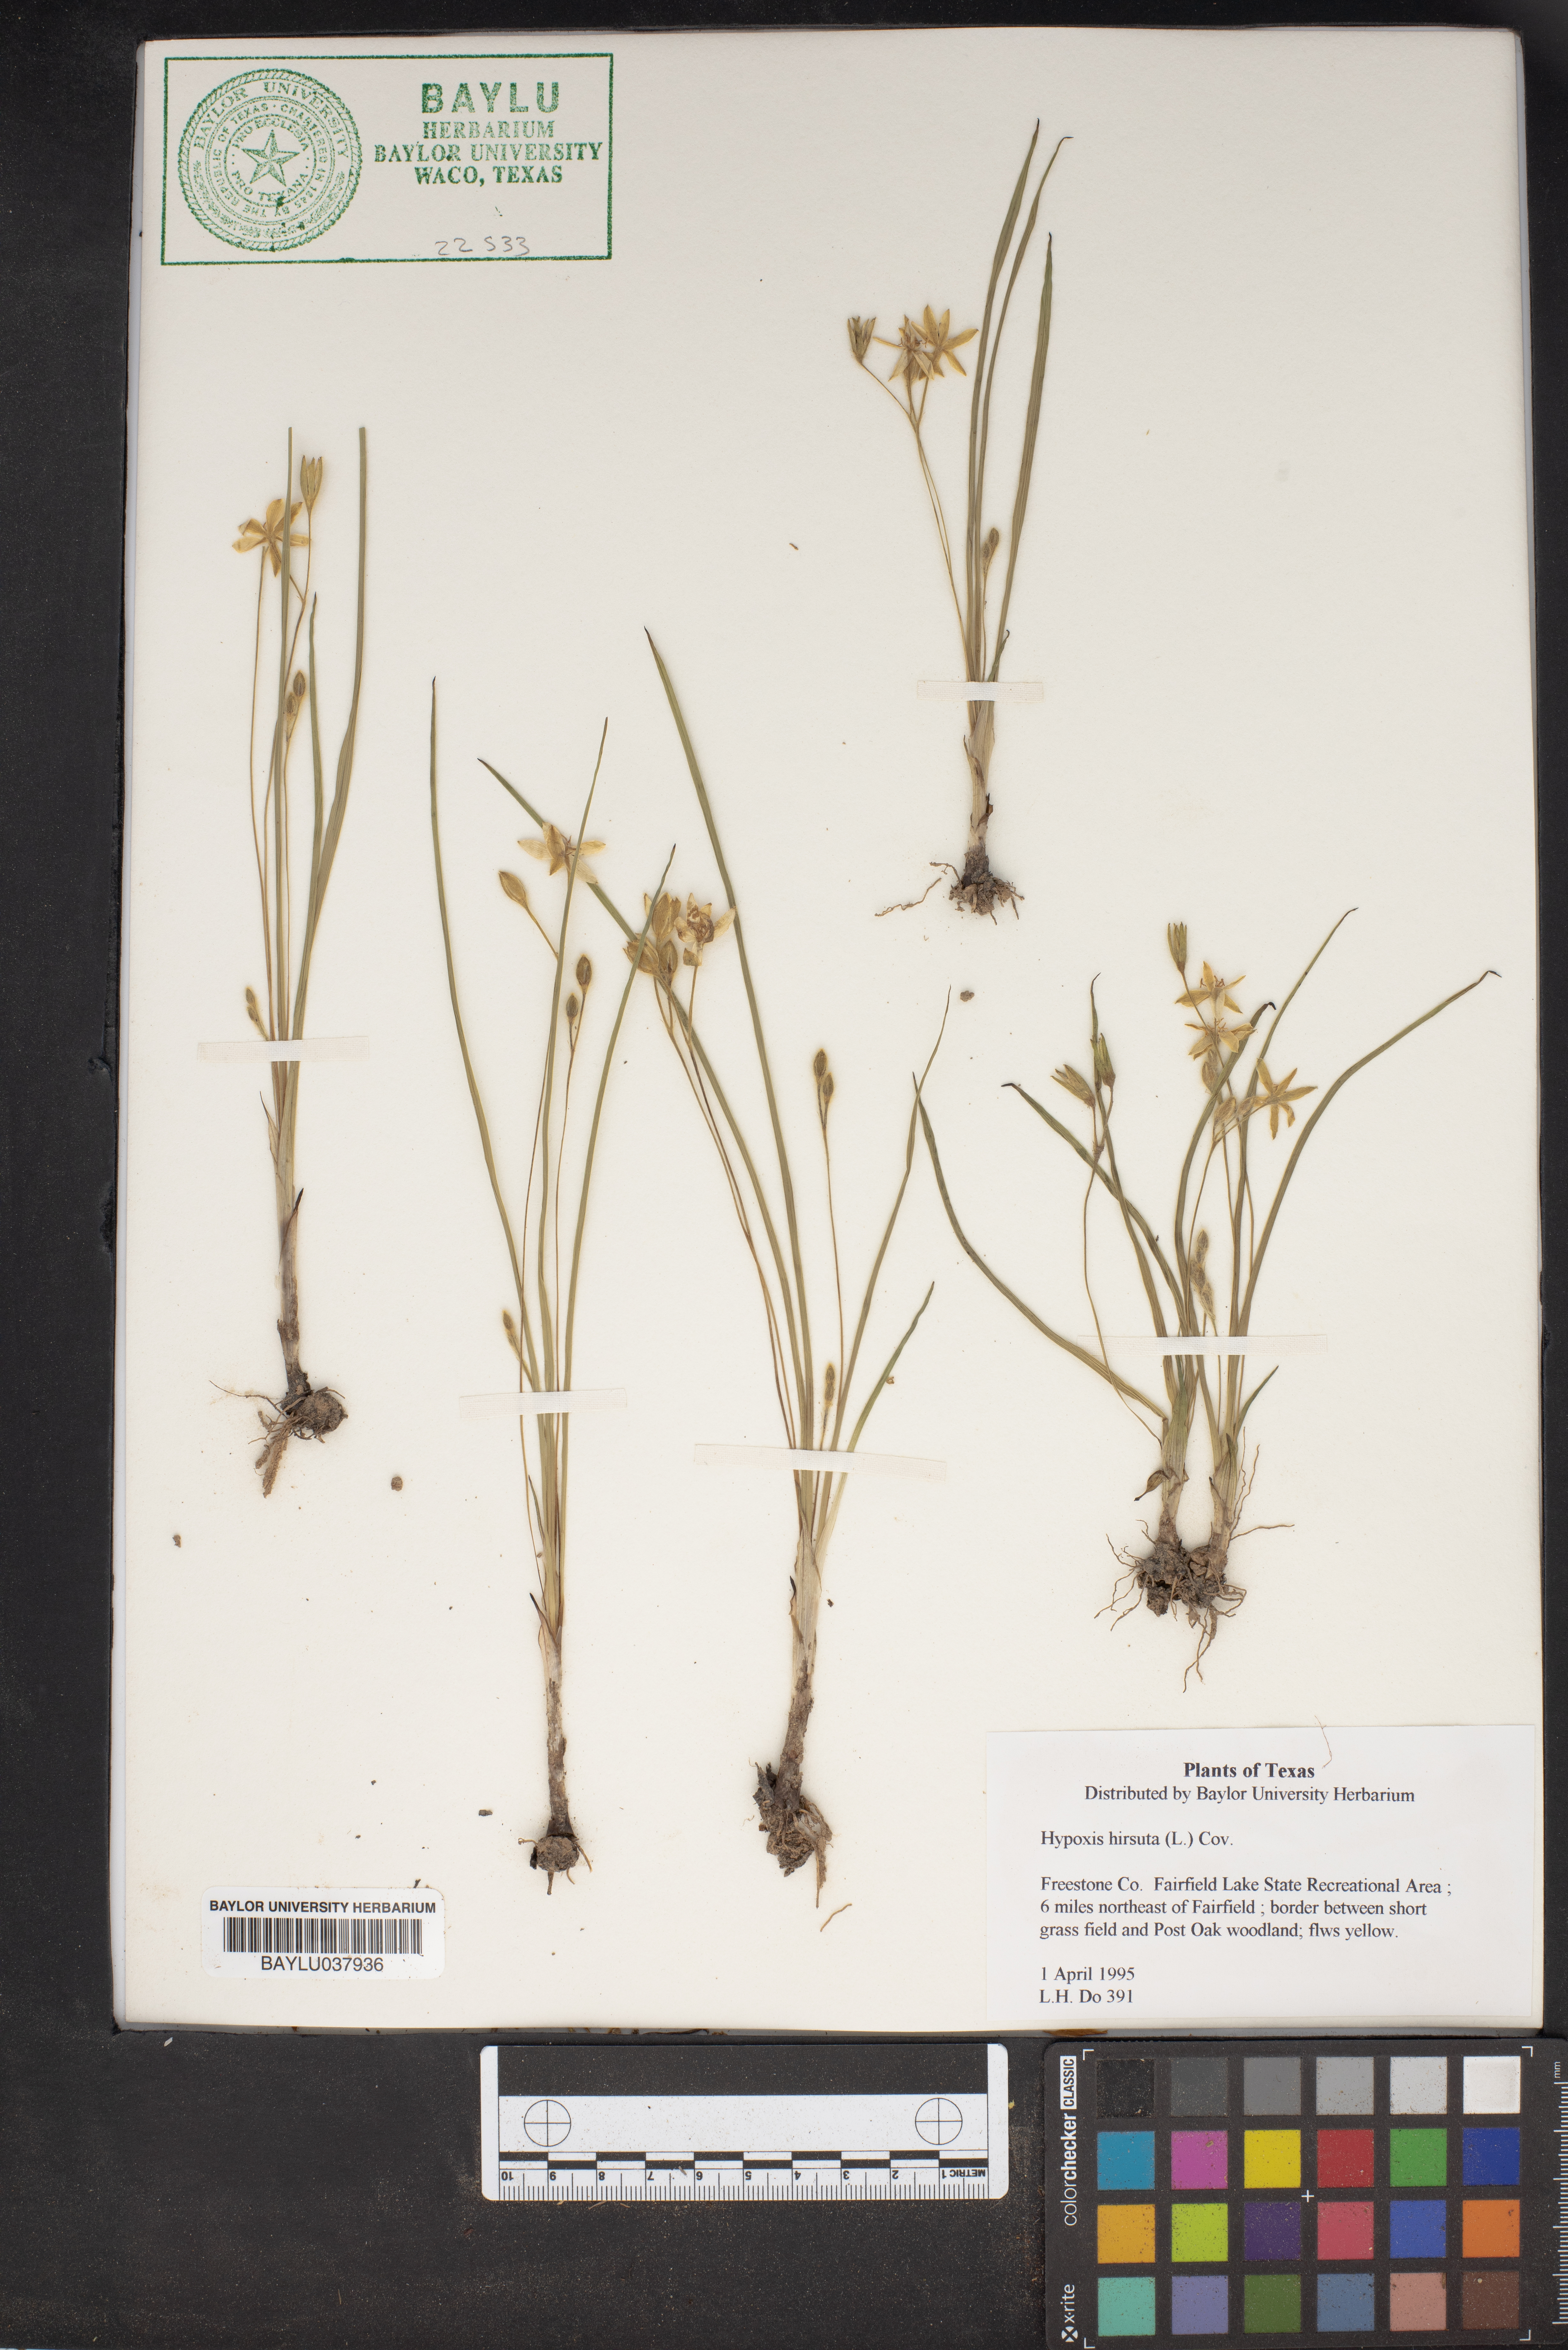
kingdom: Plantae
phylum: Tracheophyta
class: Liliopsida
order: Asparagales
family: Hypoxidaceae
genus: Hypoxis
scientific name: Hypoxis hirsuta
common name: Common goldstar
